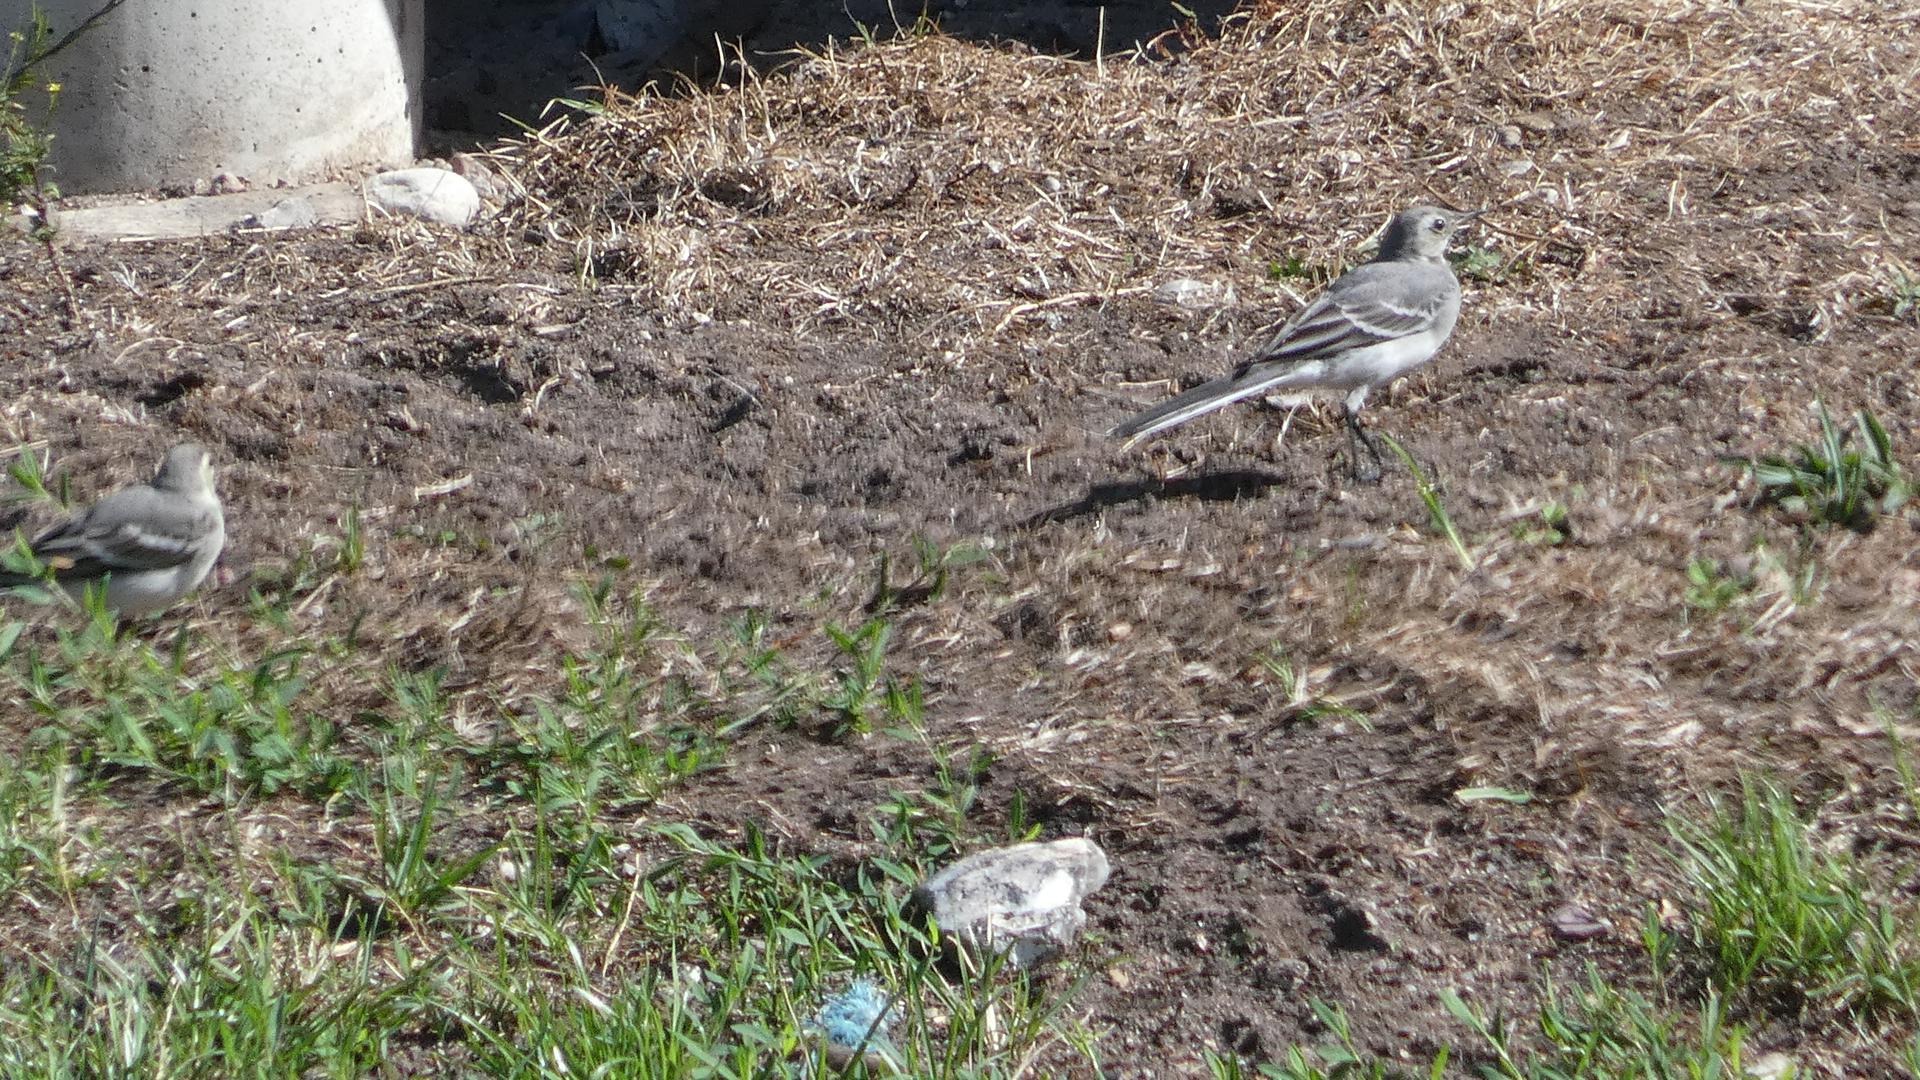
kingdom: Animalia
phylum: Chordata
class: Aves
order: Passeriformes
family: Motacillidae
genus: Motacilla
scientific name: Motacilla alba
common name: Hvid vipstjert
